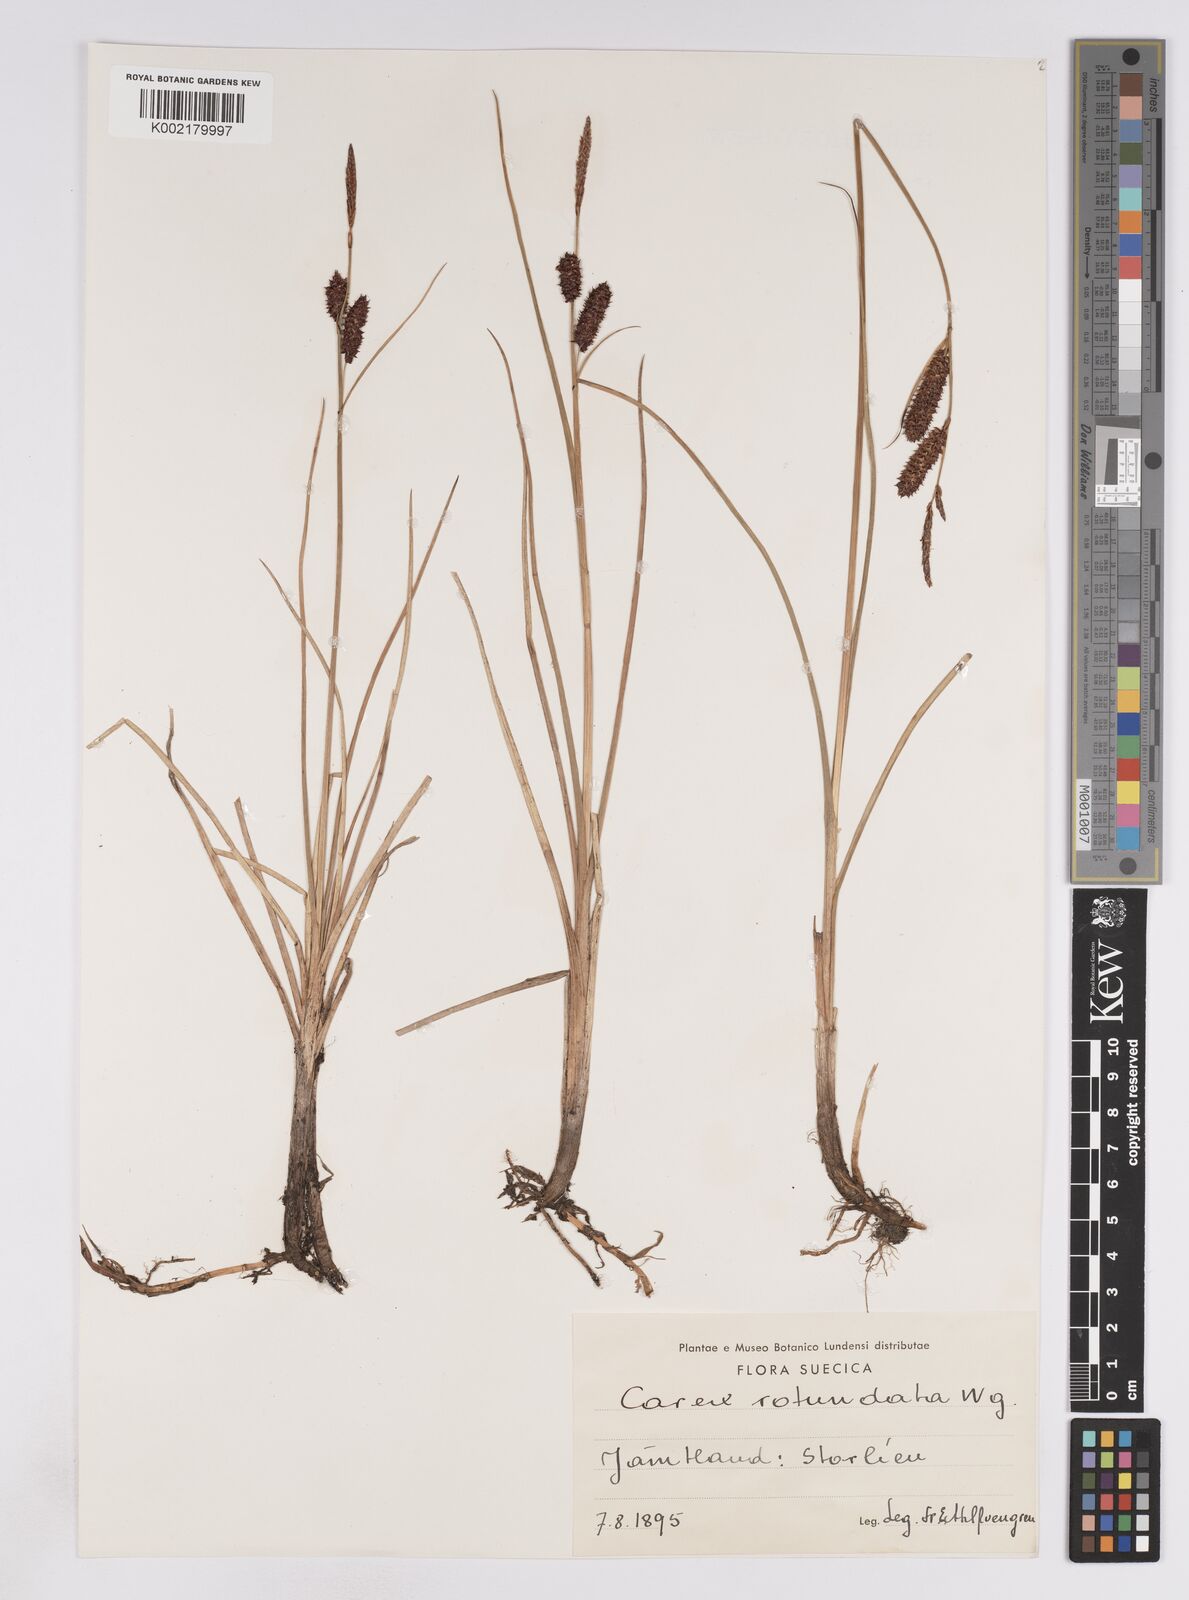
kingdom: Plantae
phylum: Tracheophyta
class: Liliopsida
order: Poales
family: Cyperaceae
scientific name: Cyperaceae
